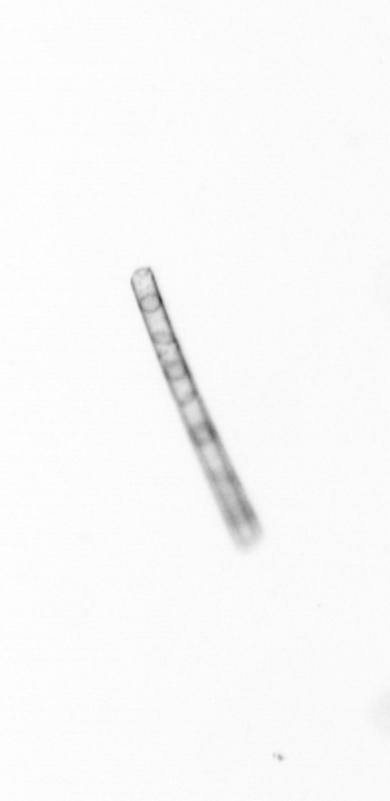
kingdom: Chromista
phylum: Ochrophyta
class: Bacillariophyceae
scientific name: Bacillariophyceae
